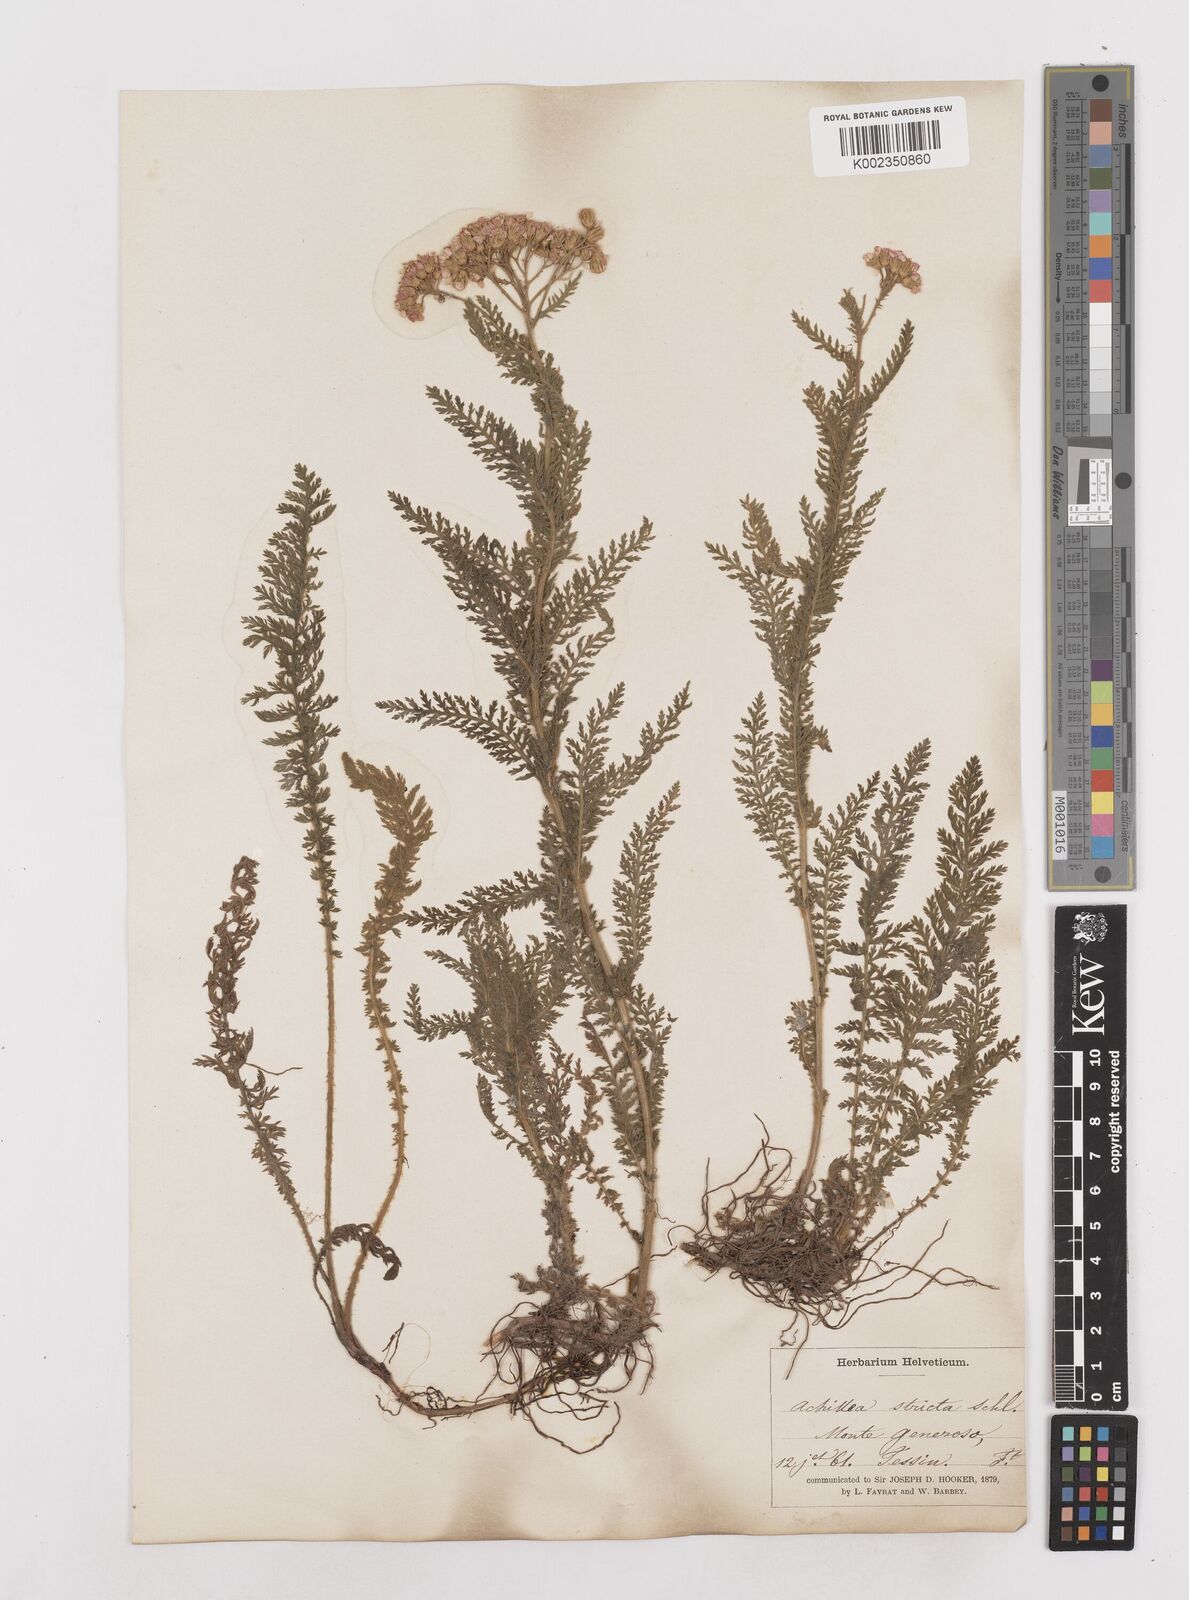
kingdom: Plantae
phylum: Tracheophyta
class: Magnoliopsida
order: Asterales
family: Asteraceae
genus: Achillea
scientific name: Achillea distans
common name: Tall yarrow
